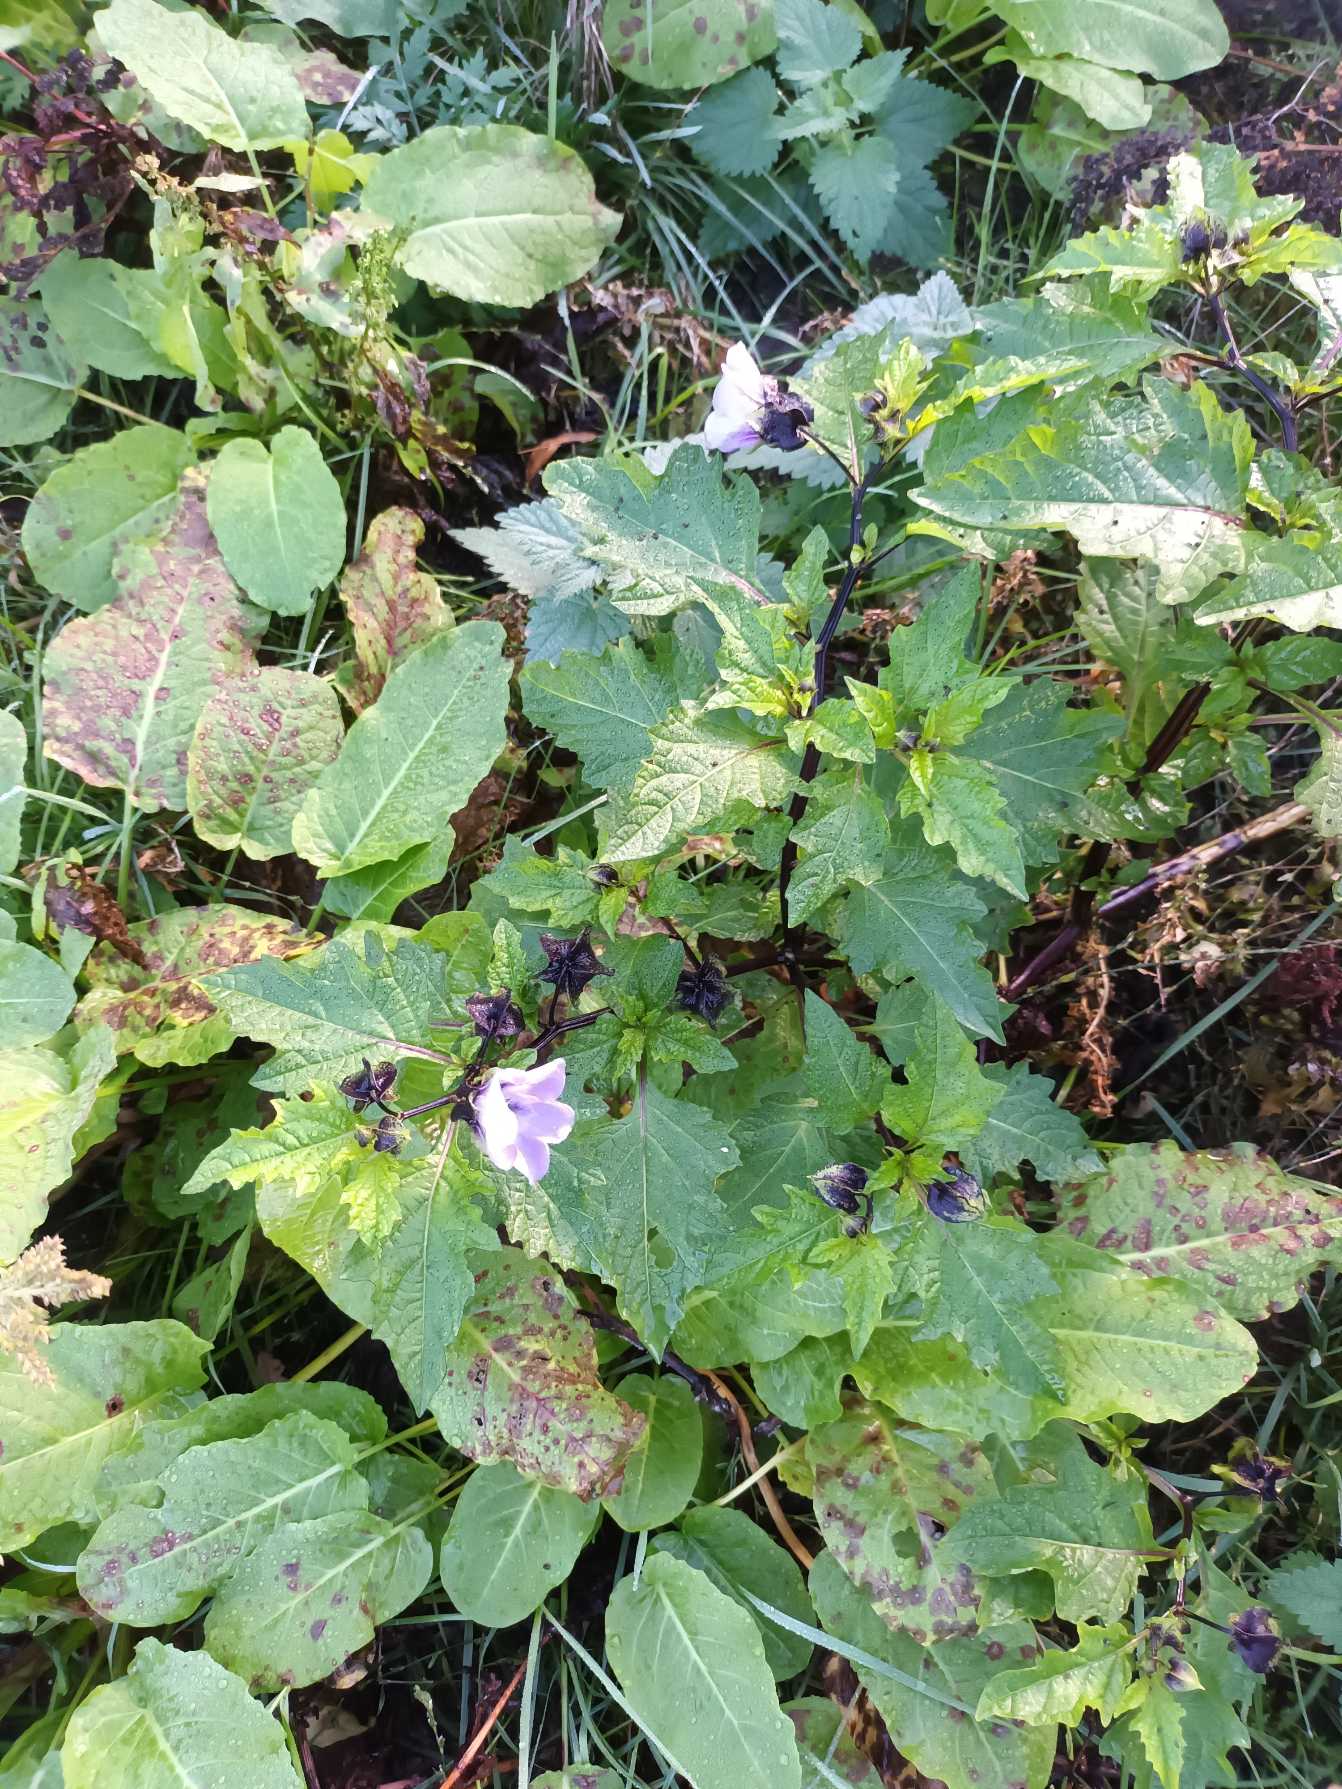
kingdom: Plantae
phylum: Tracheophyta
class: Magnoliopsida
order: Solanales
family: Solanaceae
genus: Nicandra
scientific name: Nicandra physalodes
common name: Kantbæger
